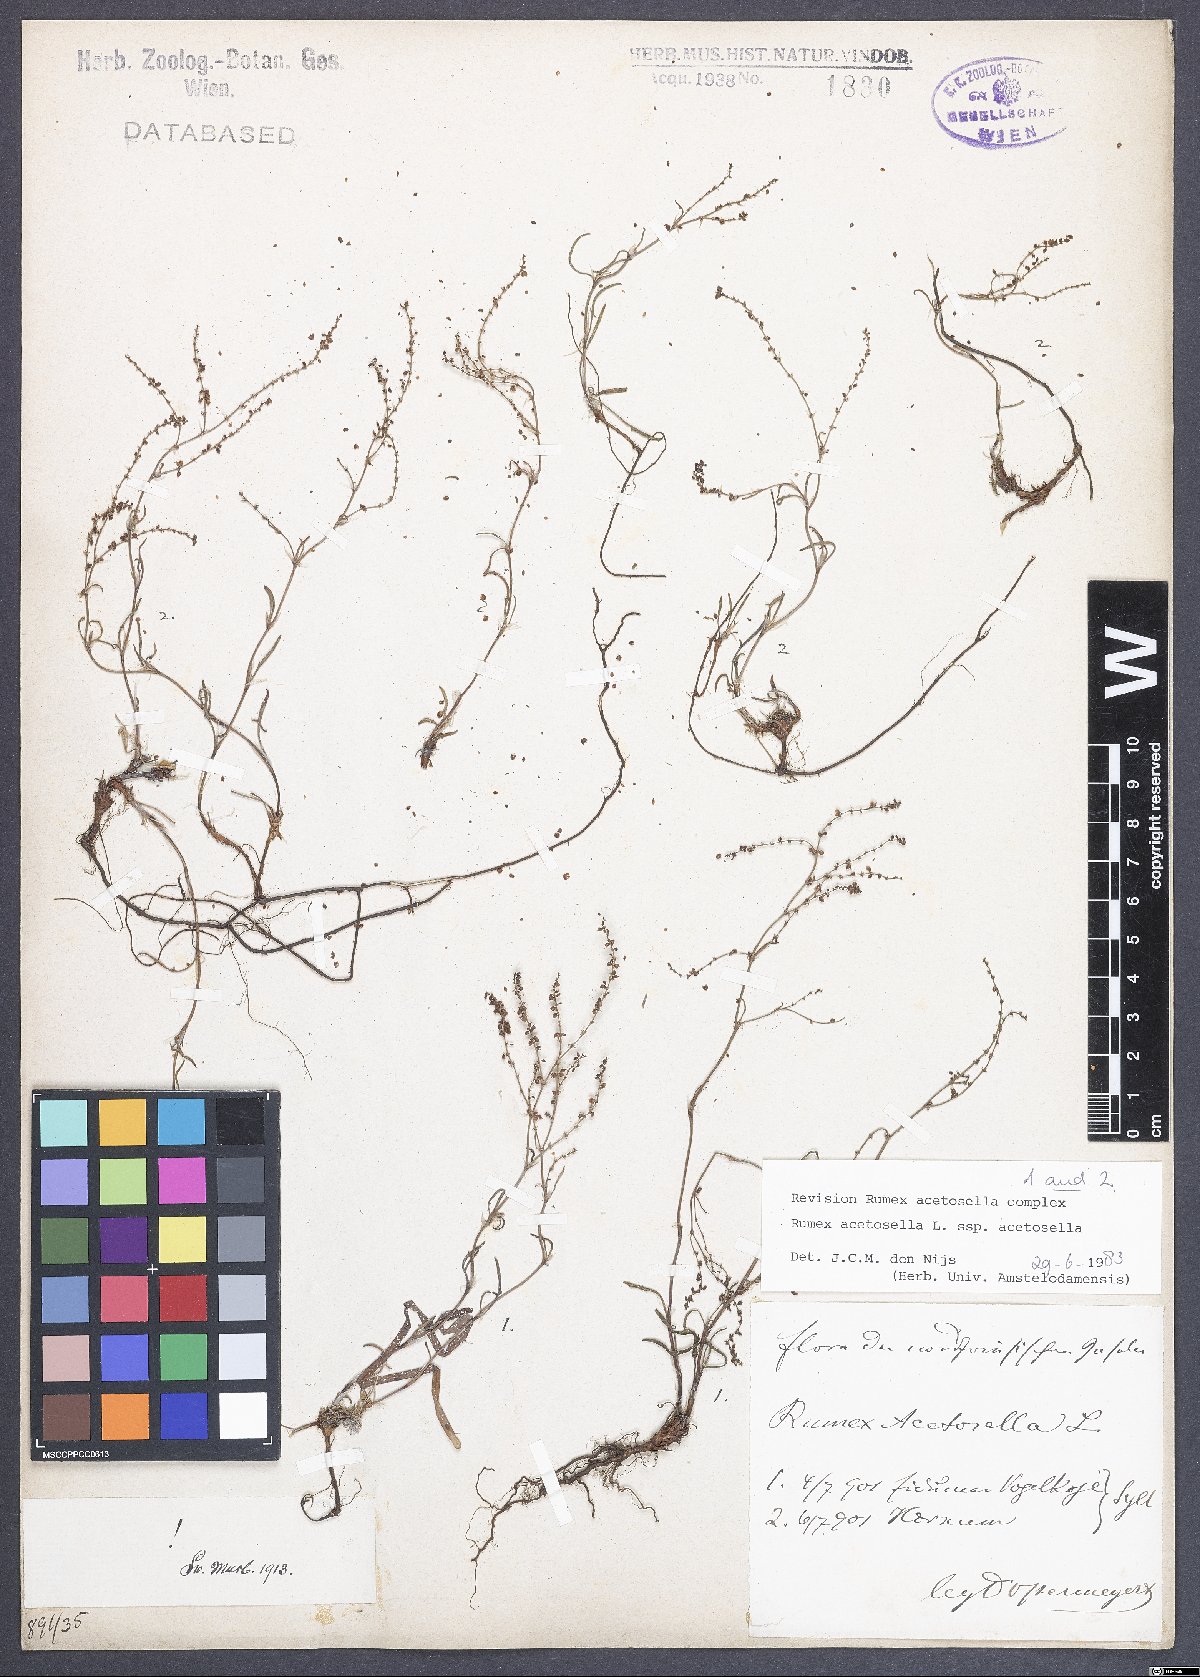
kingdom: Plantae
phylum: Tracheophyta
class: Magnoliopsida
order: Caryophyllales
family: Polygonaceae
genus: Rumex
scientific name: Rumex acetosella
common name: Common sheep sorrel
